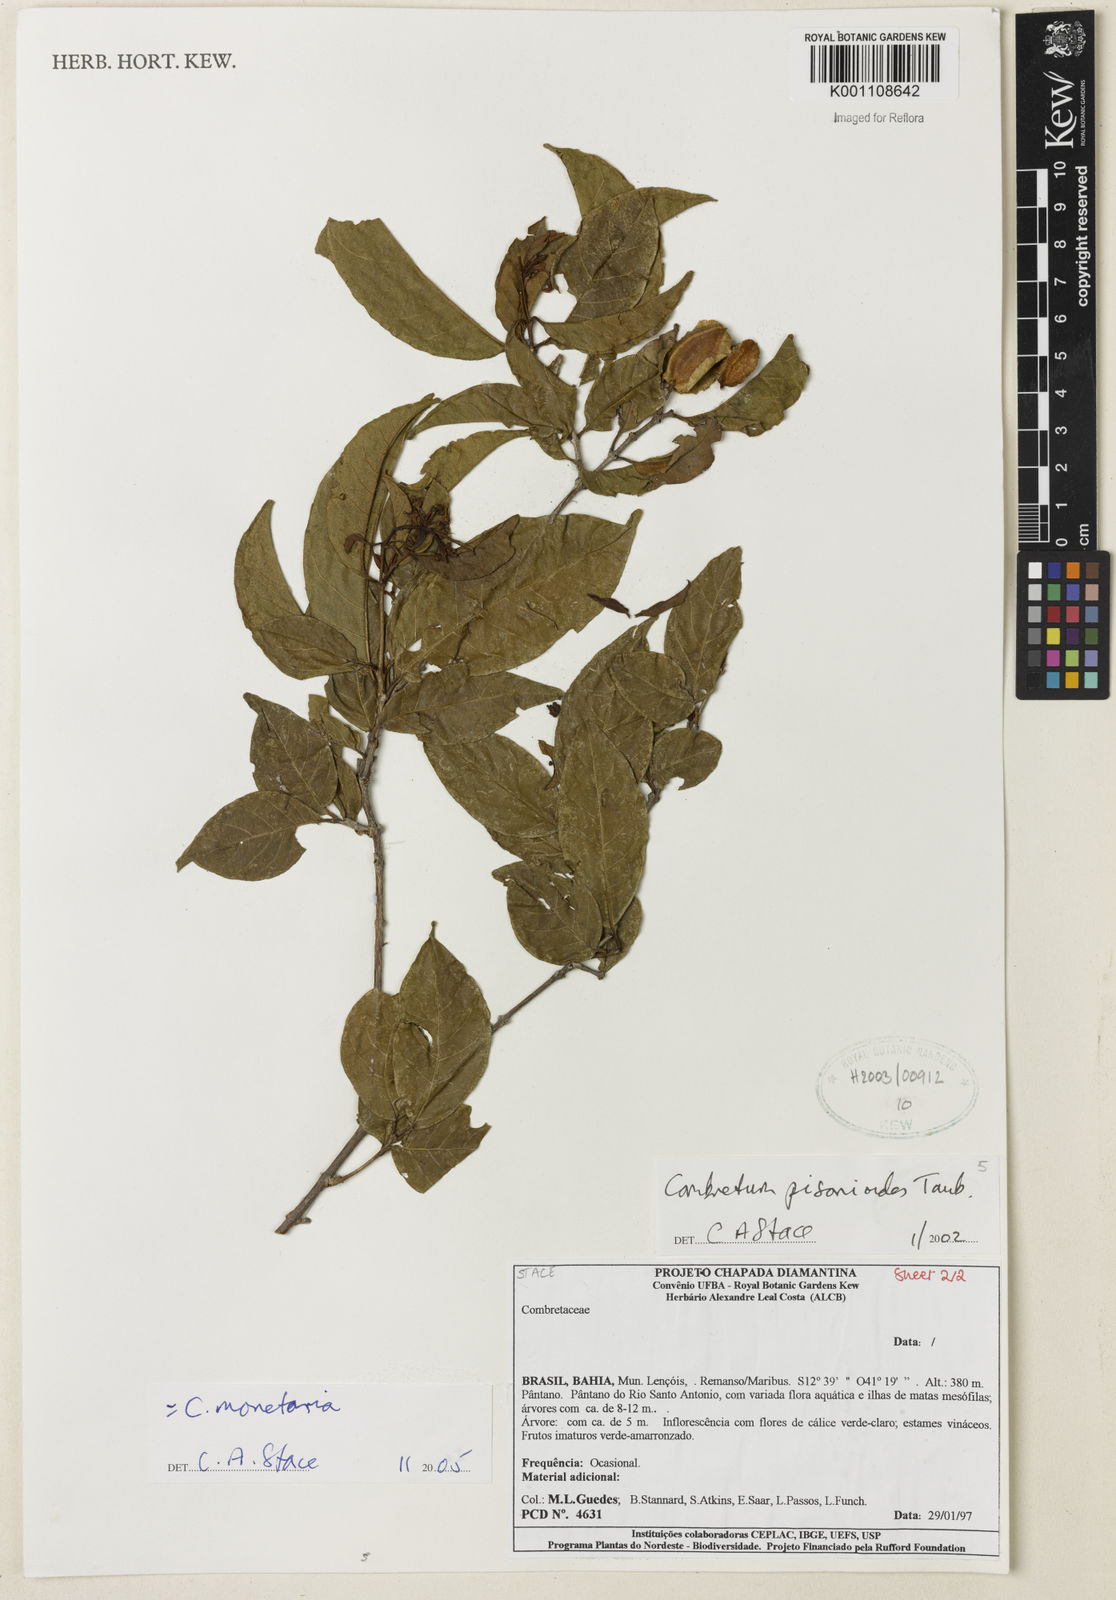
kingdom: Plantae
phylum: Tracheophyta
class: Magnoliopsida
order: Myrtales
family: Combretaceae
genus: Combretum
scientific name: Combretum pisonioides
